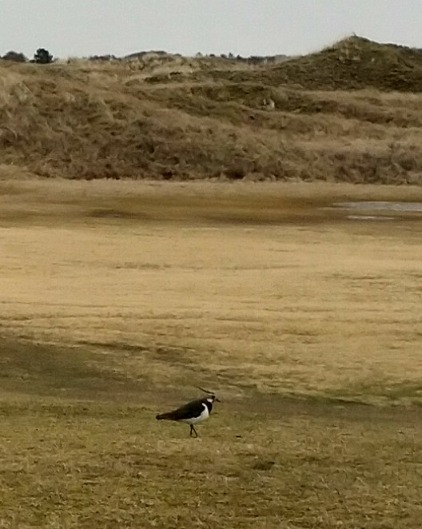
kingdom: Animalia
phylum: Chordata
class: Aves
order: Charadriiformes
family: Charadriidae
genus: Vanellus
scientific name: Vanellus vanellus
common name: Vibe
